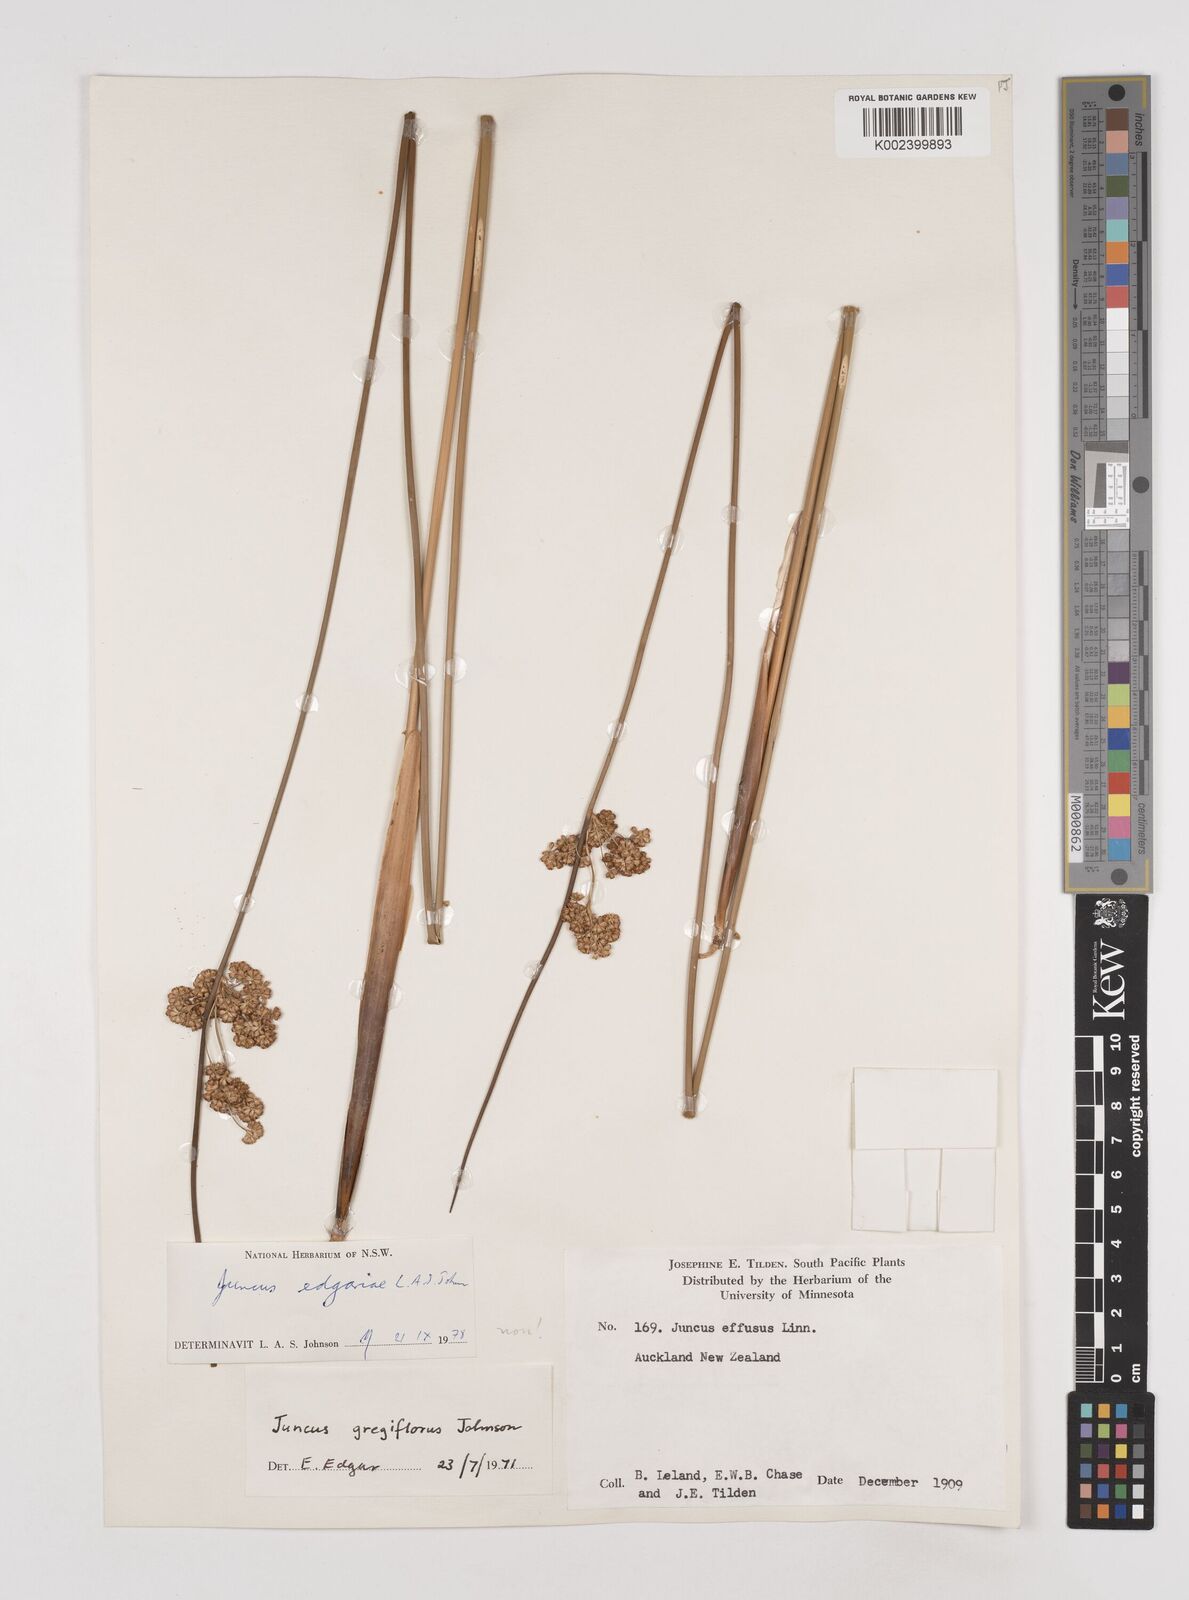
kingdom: Plantae
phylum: Tracheophyta
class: Liliopsida
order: Poales
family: Juncaceae
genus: Juncus
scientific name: Juncus edgariae
